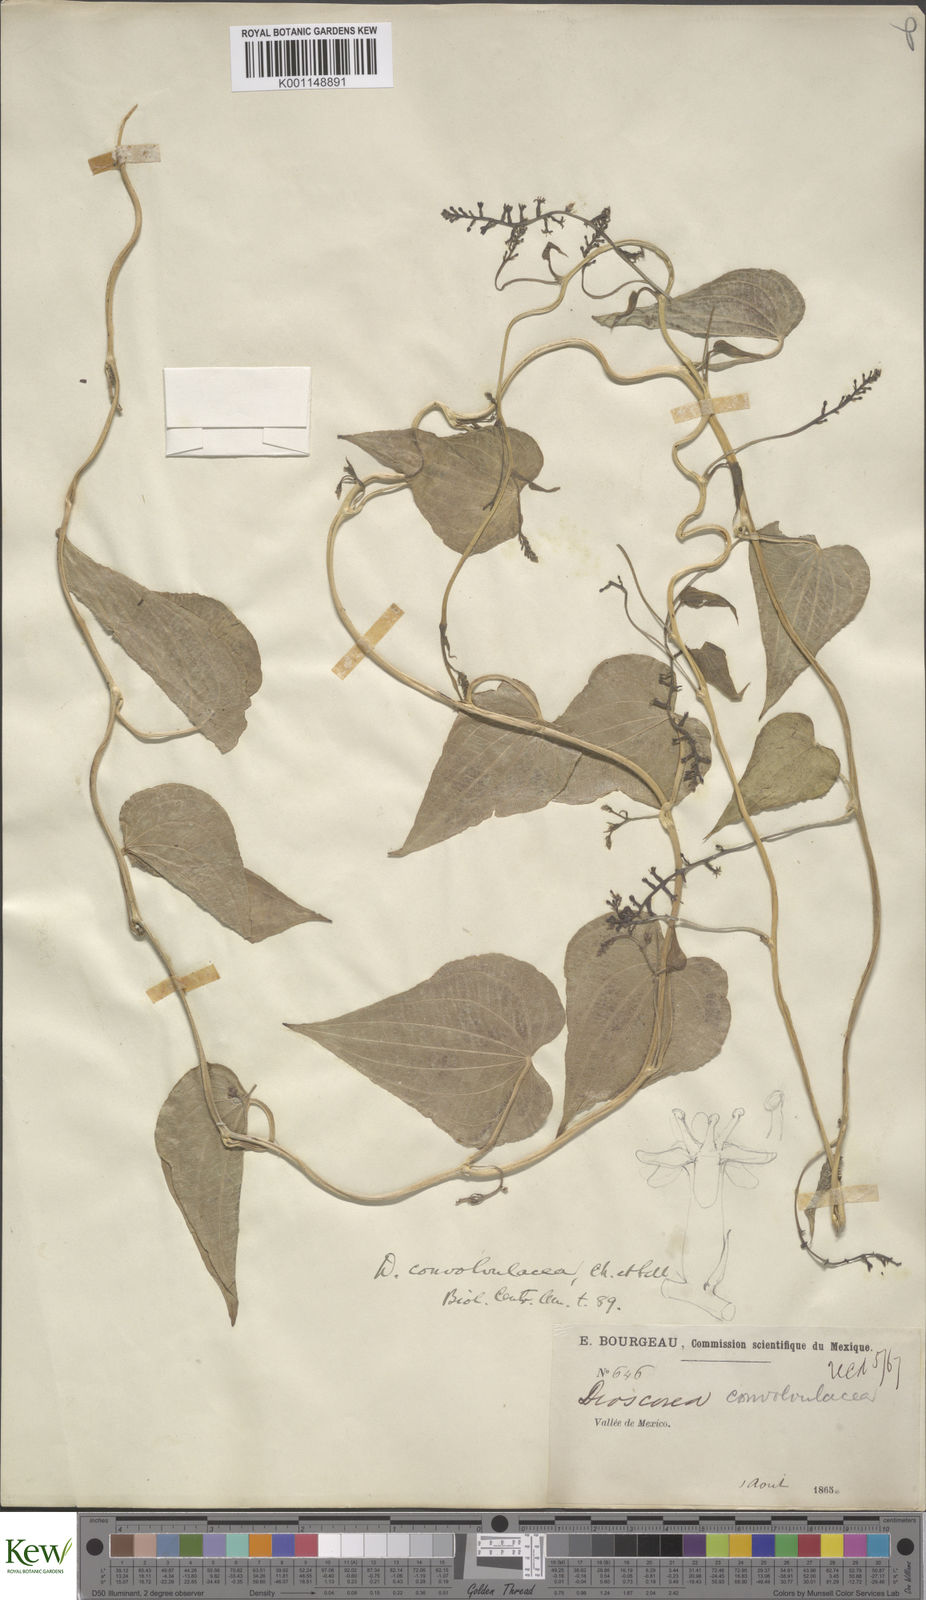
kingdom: Plantae
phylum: Tracheophyta
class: Liliopsida
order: Dioscoreales
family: Dioscoreaceae
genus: Dioscorea
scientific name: Dioscorea galeottiana
